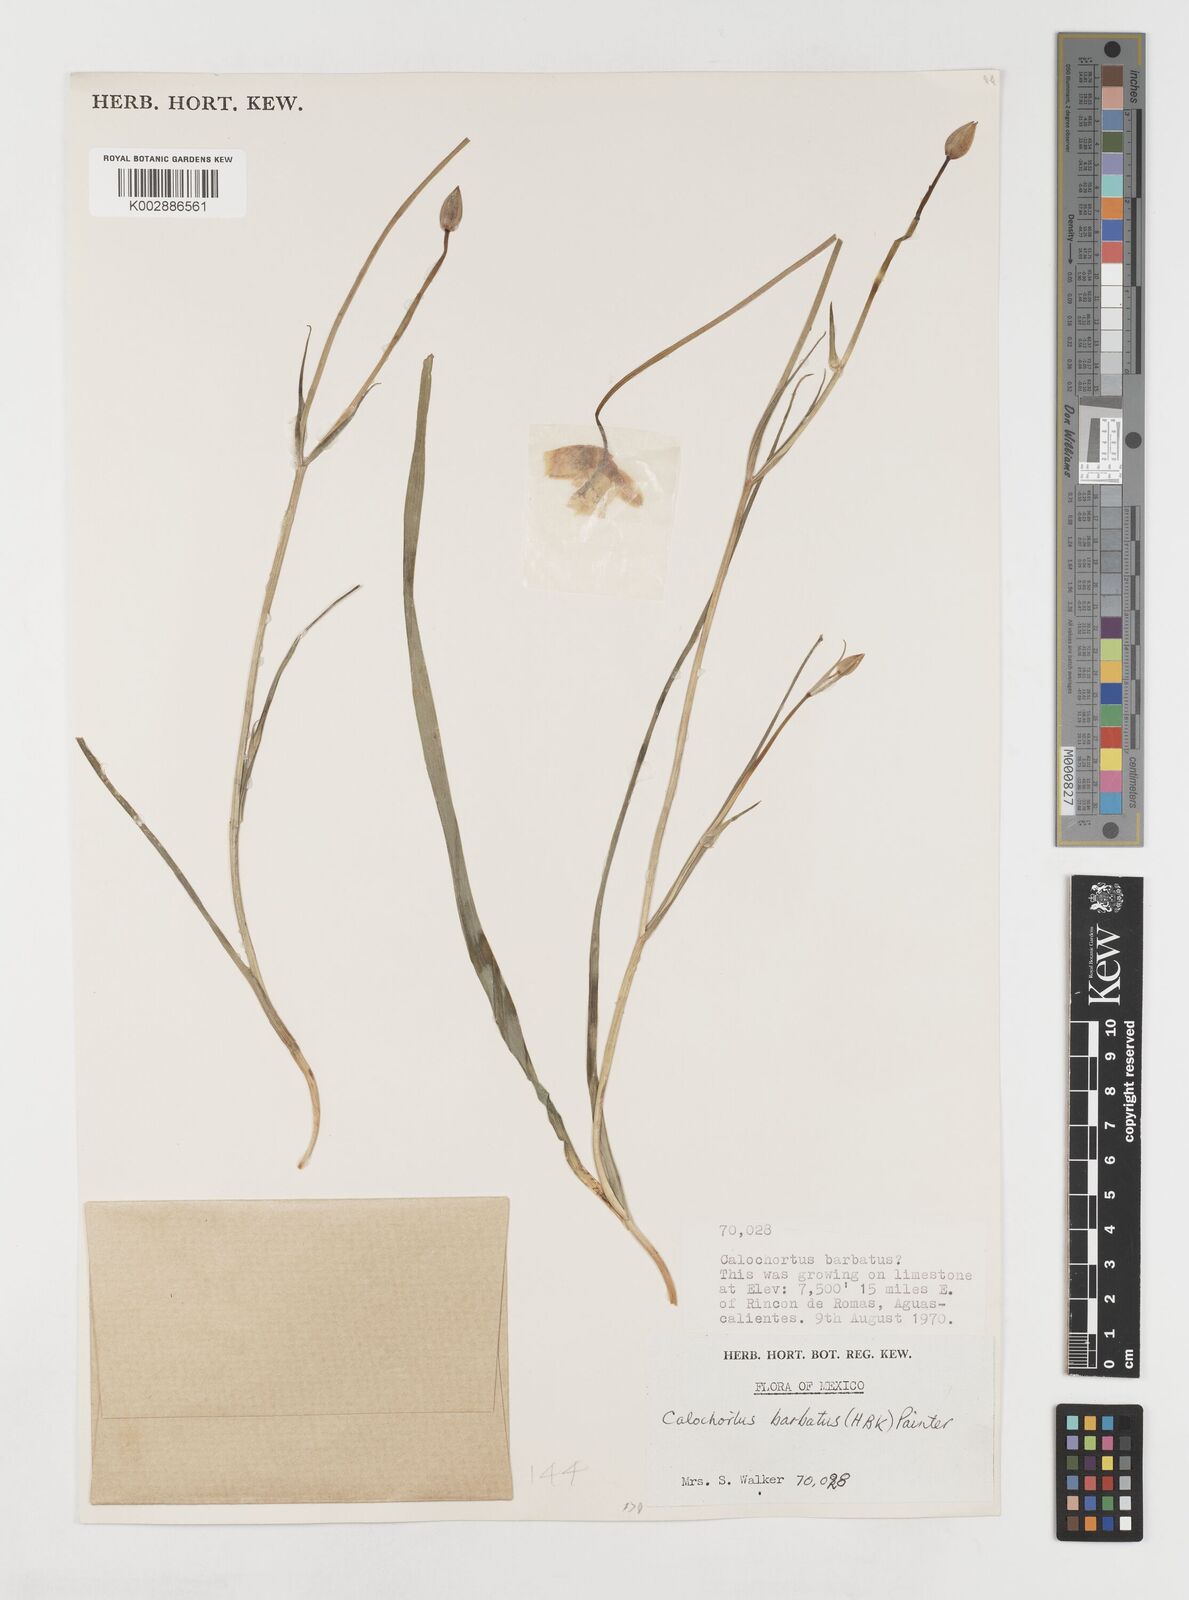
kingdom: Plantae
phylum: Tracheophyta
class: Liliopsida
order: Liliales
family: Liliaceae
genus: Calochortus
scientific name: Calochortus barbatus
